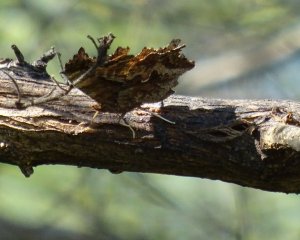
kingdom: Animalia
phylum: Arthropoda
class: Insecta
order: Lepidoptera
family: Nymphalidae
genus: Polygonia
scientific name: Polygonia comma
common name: Eastern Comma
